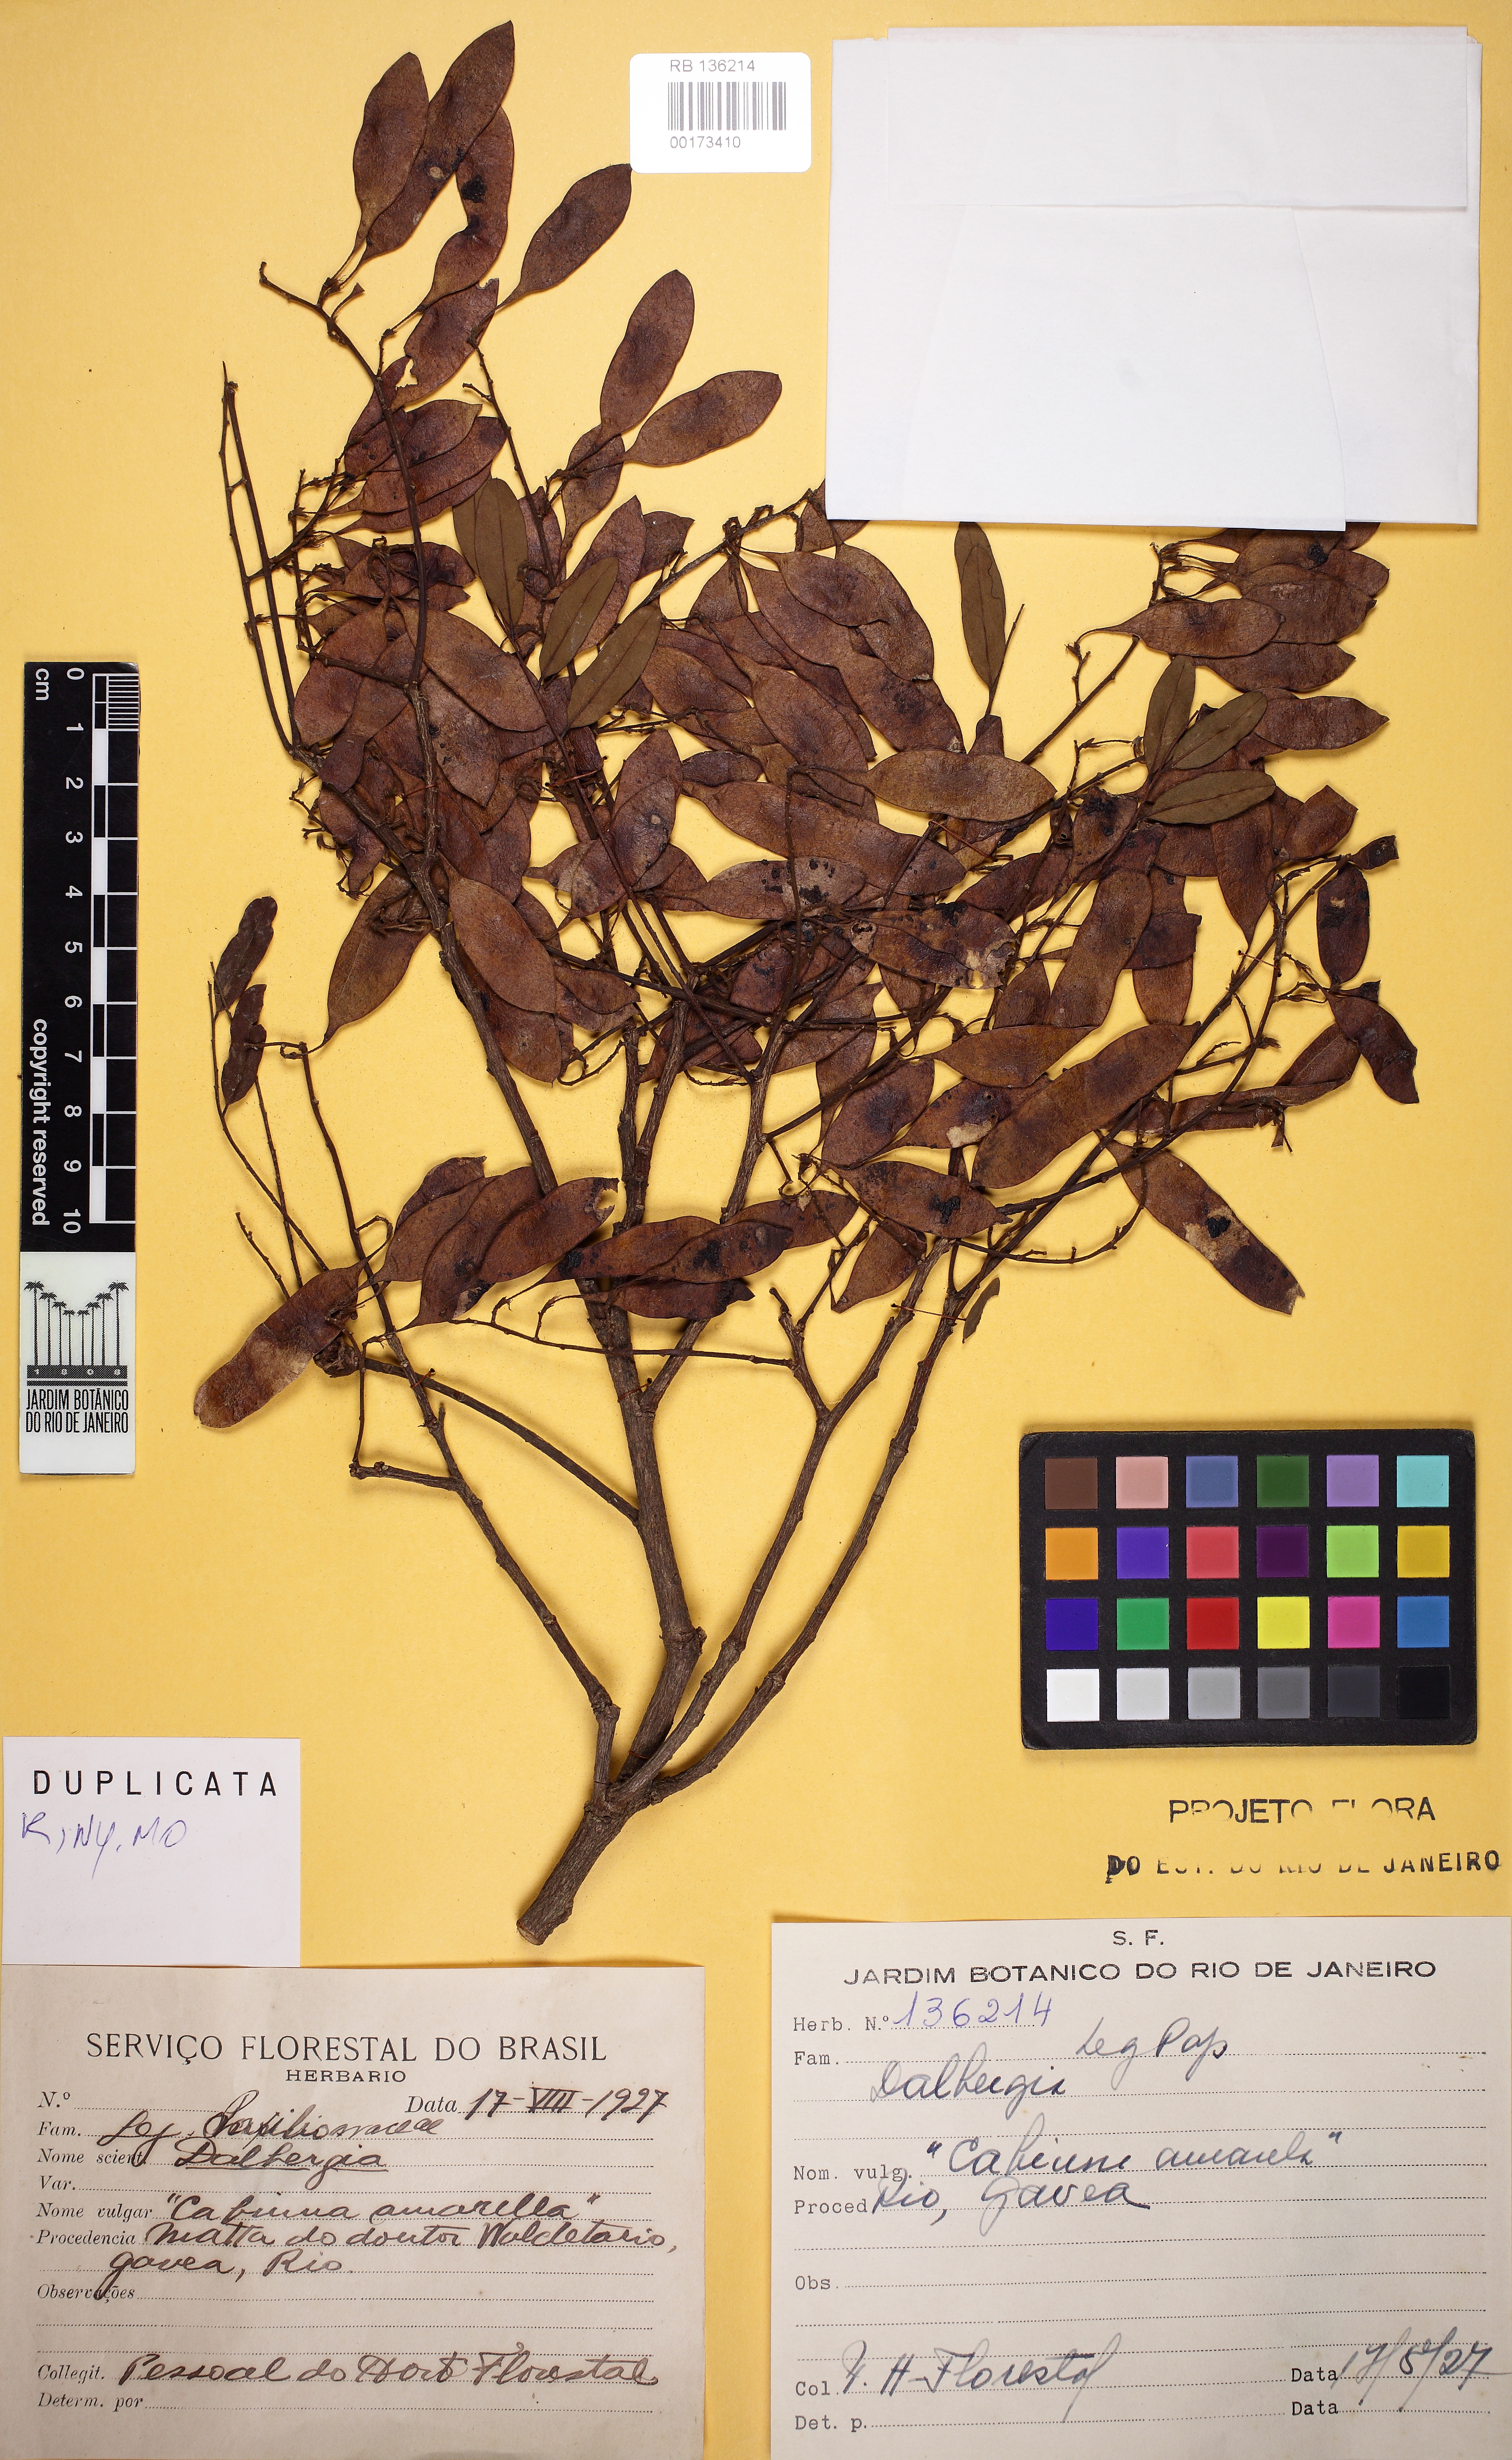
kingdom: Plantae
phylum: Tracheophyta
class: Magnoliopsida
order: Fabales
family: Fabaceae
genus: Dalbergia
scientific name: Dalbergia foliolosa
